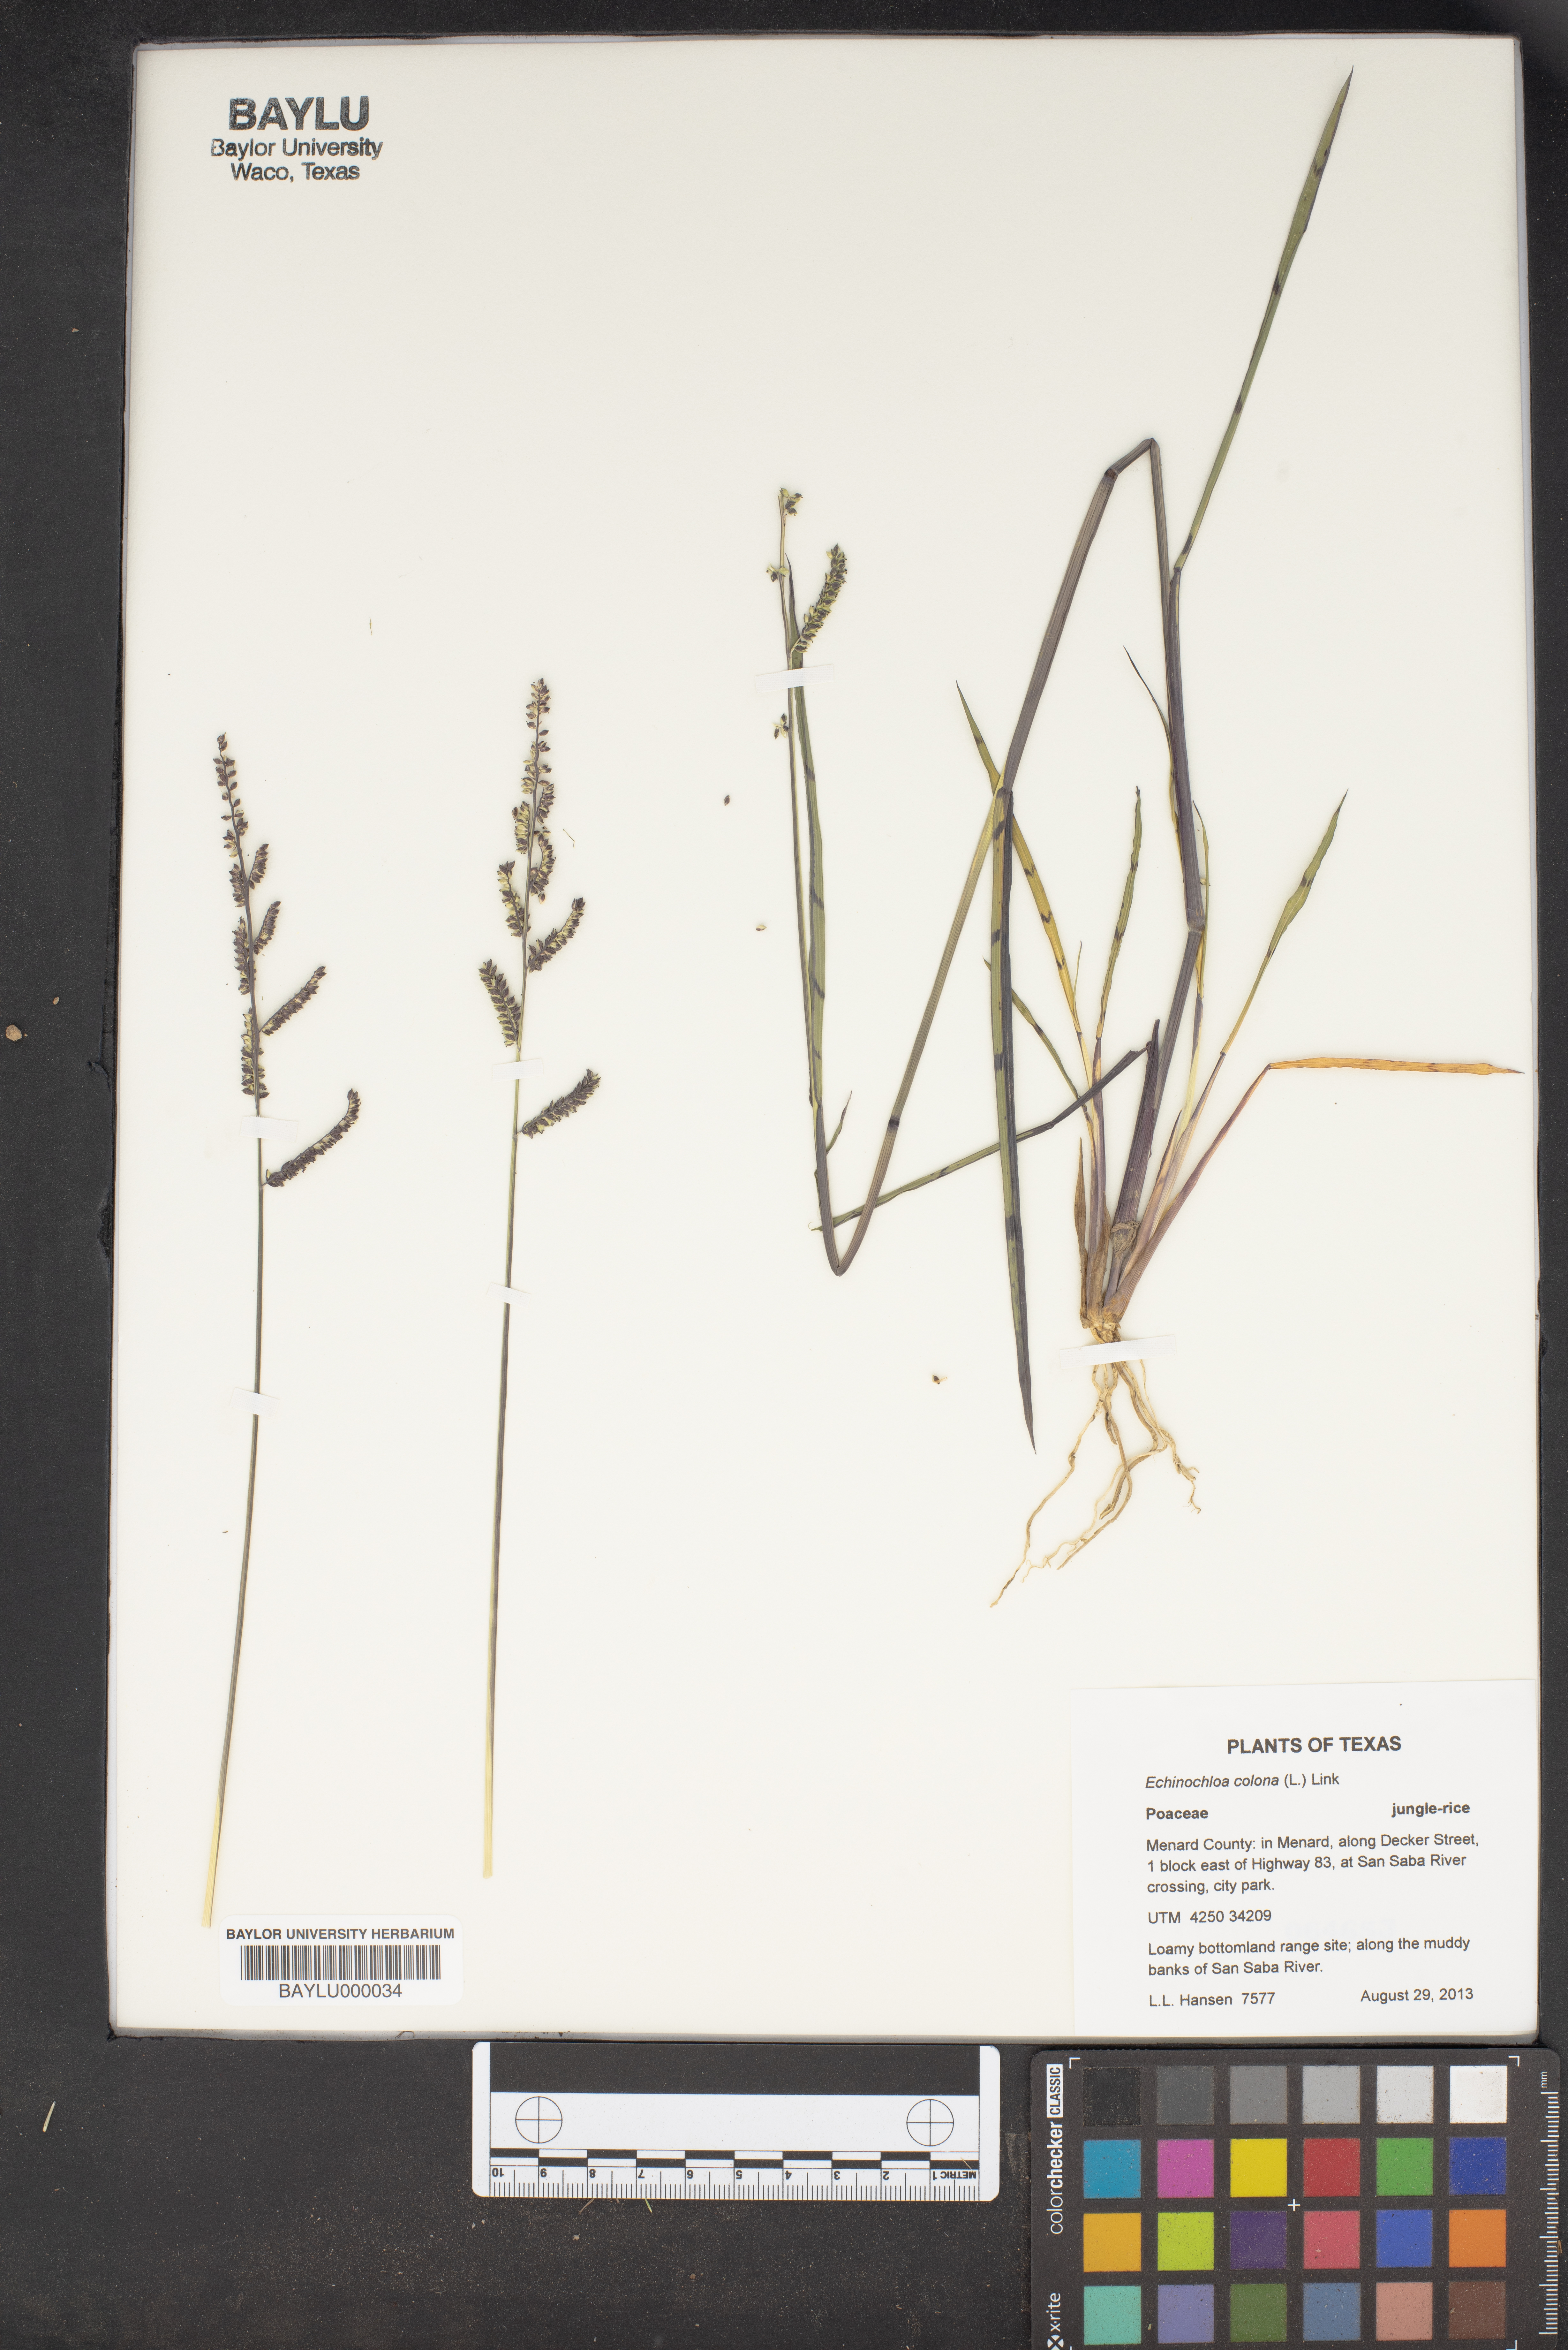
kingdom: Plantae
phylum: Tracheophyta
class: Liliopsida
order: Poales
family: Poaceae
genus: Echinochloa
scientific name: Echinochloa colonum
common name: Jungle rice
